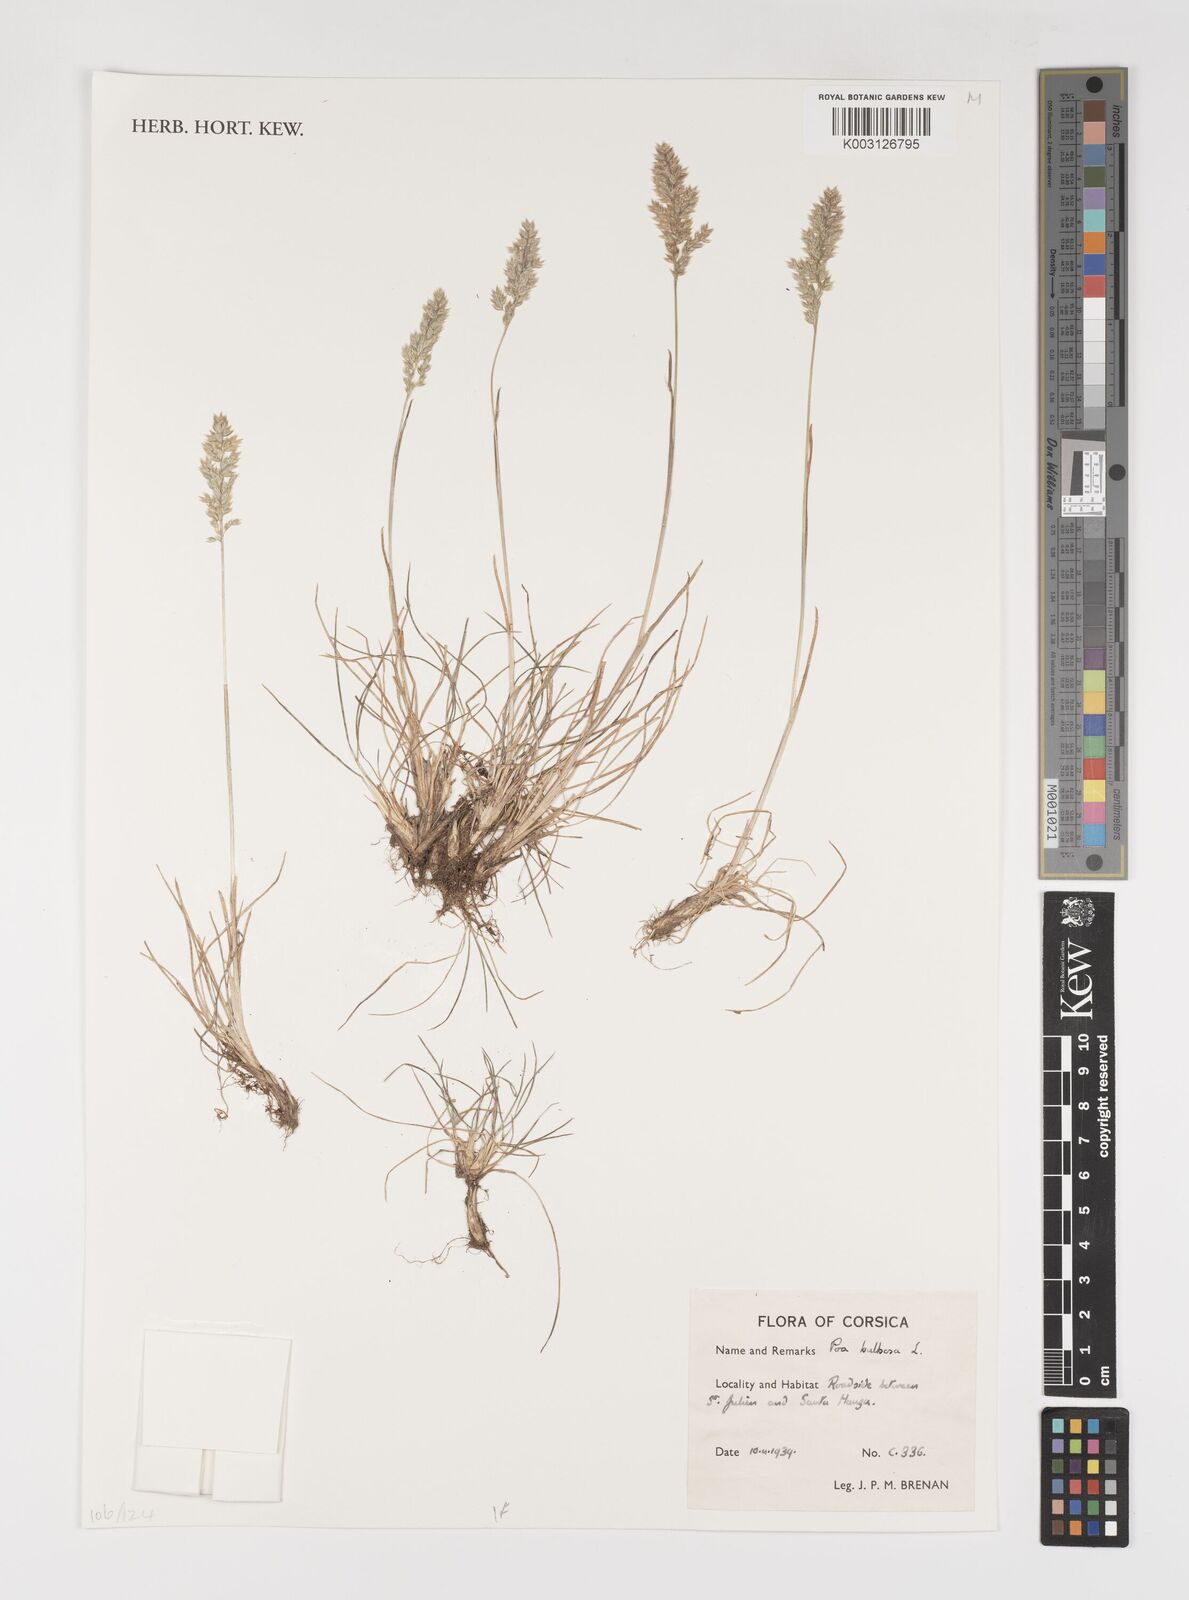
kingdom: Plantae
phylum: Tracheophyta
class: Liliopsida
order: Poales
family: Poaceae
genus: Poa
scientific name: Poa bulbosa
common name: Bulbous bluegrass
